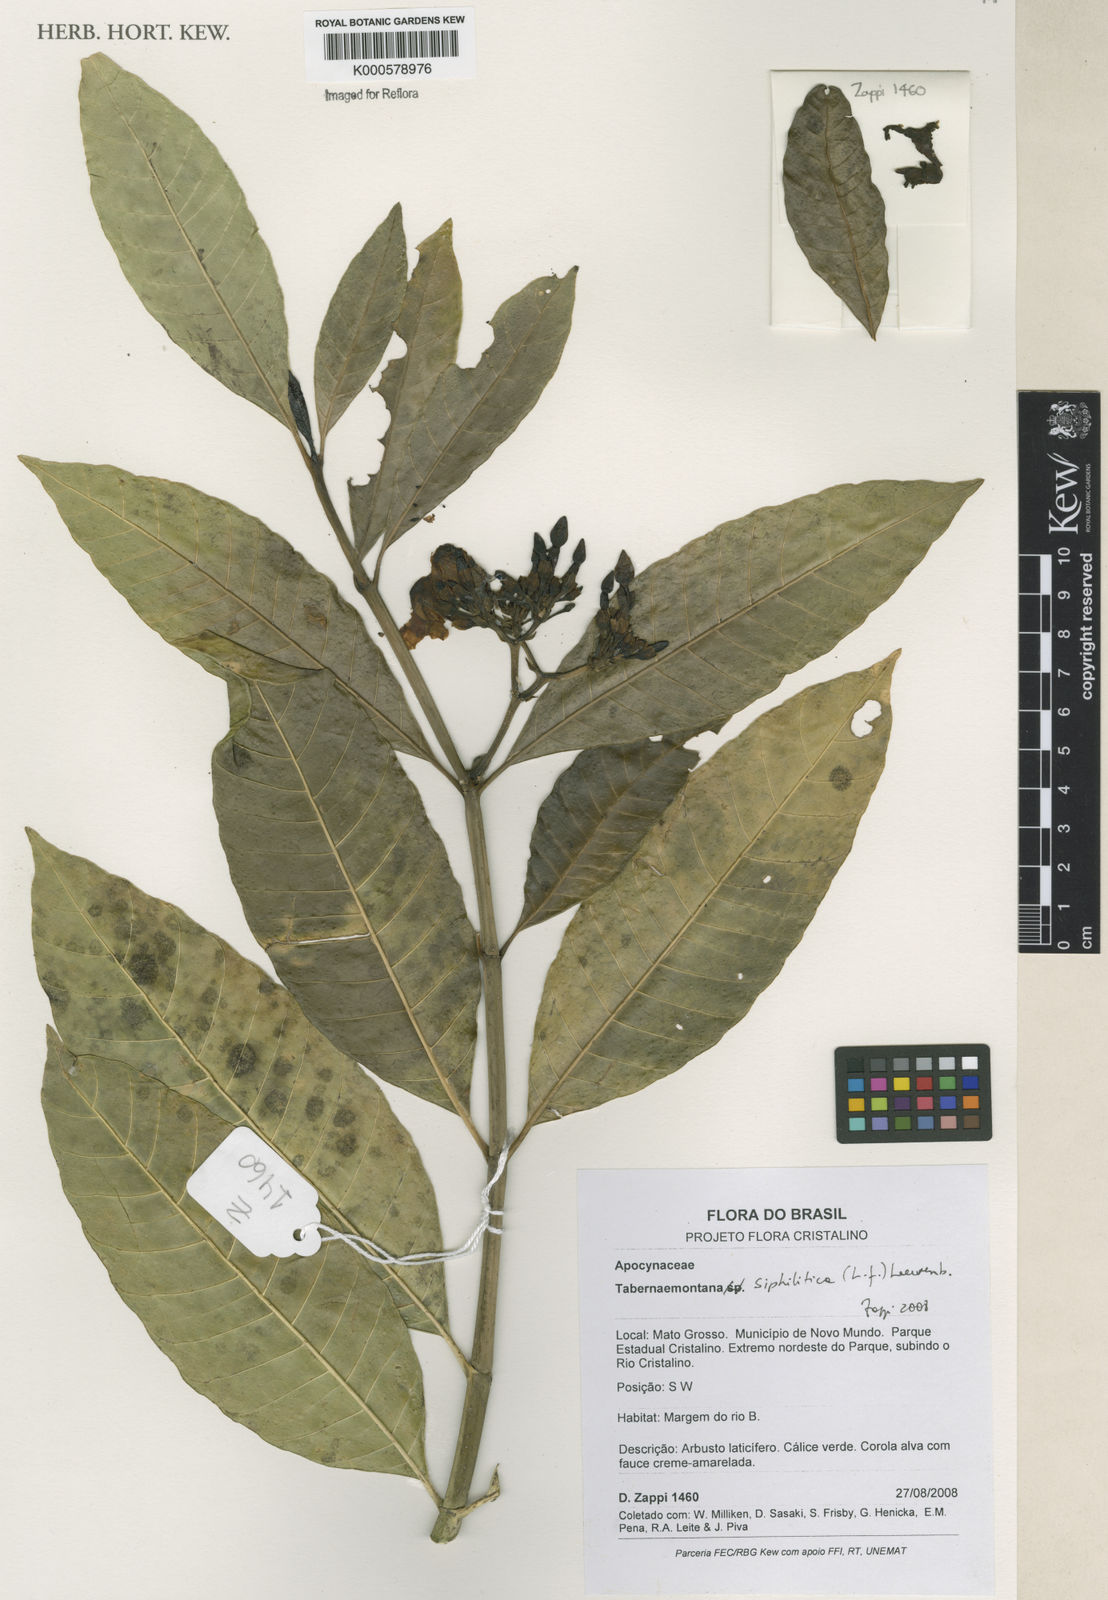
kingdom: Plantae
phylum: Tracheophyta
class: Magnoliopsida
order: Gentianales
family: Apocynaceae
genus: Tabernaemontana
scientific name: Tabernaemontana siphilitica
